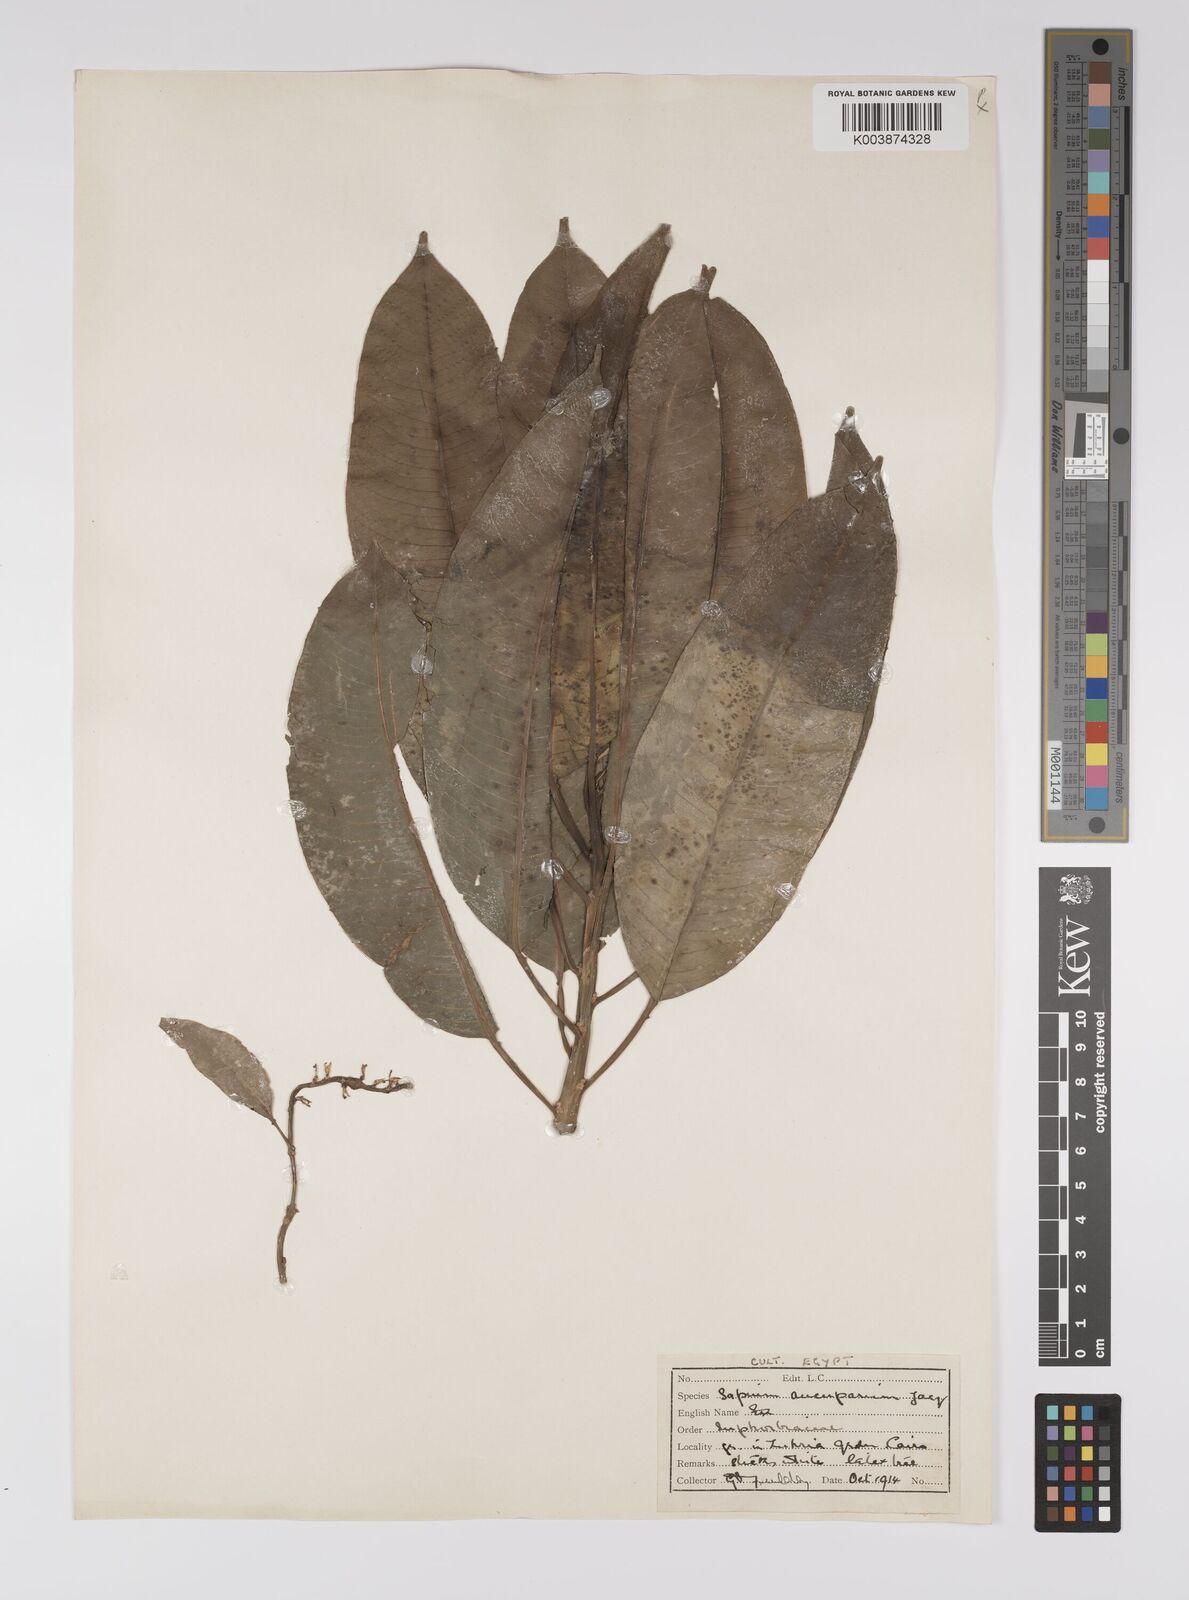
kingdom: Plantae
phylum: Tracheophyta
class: Magnoliopsida
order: Malpighiales
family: Euphorbiaceae
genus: Sapium
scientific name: Sapium glandulosum
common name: Milktree
